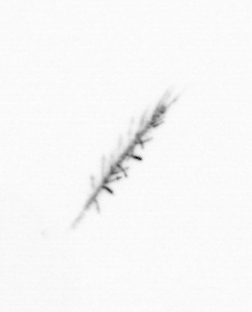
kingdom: Chromista
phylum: Ochrophyta
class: Bacillariophyceae
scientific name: Bacillariophyceae
